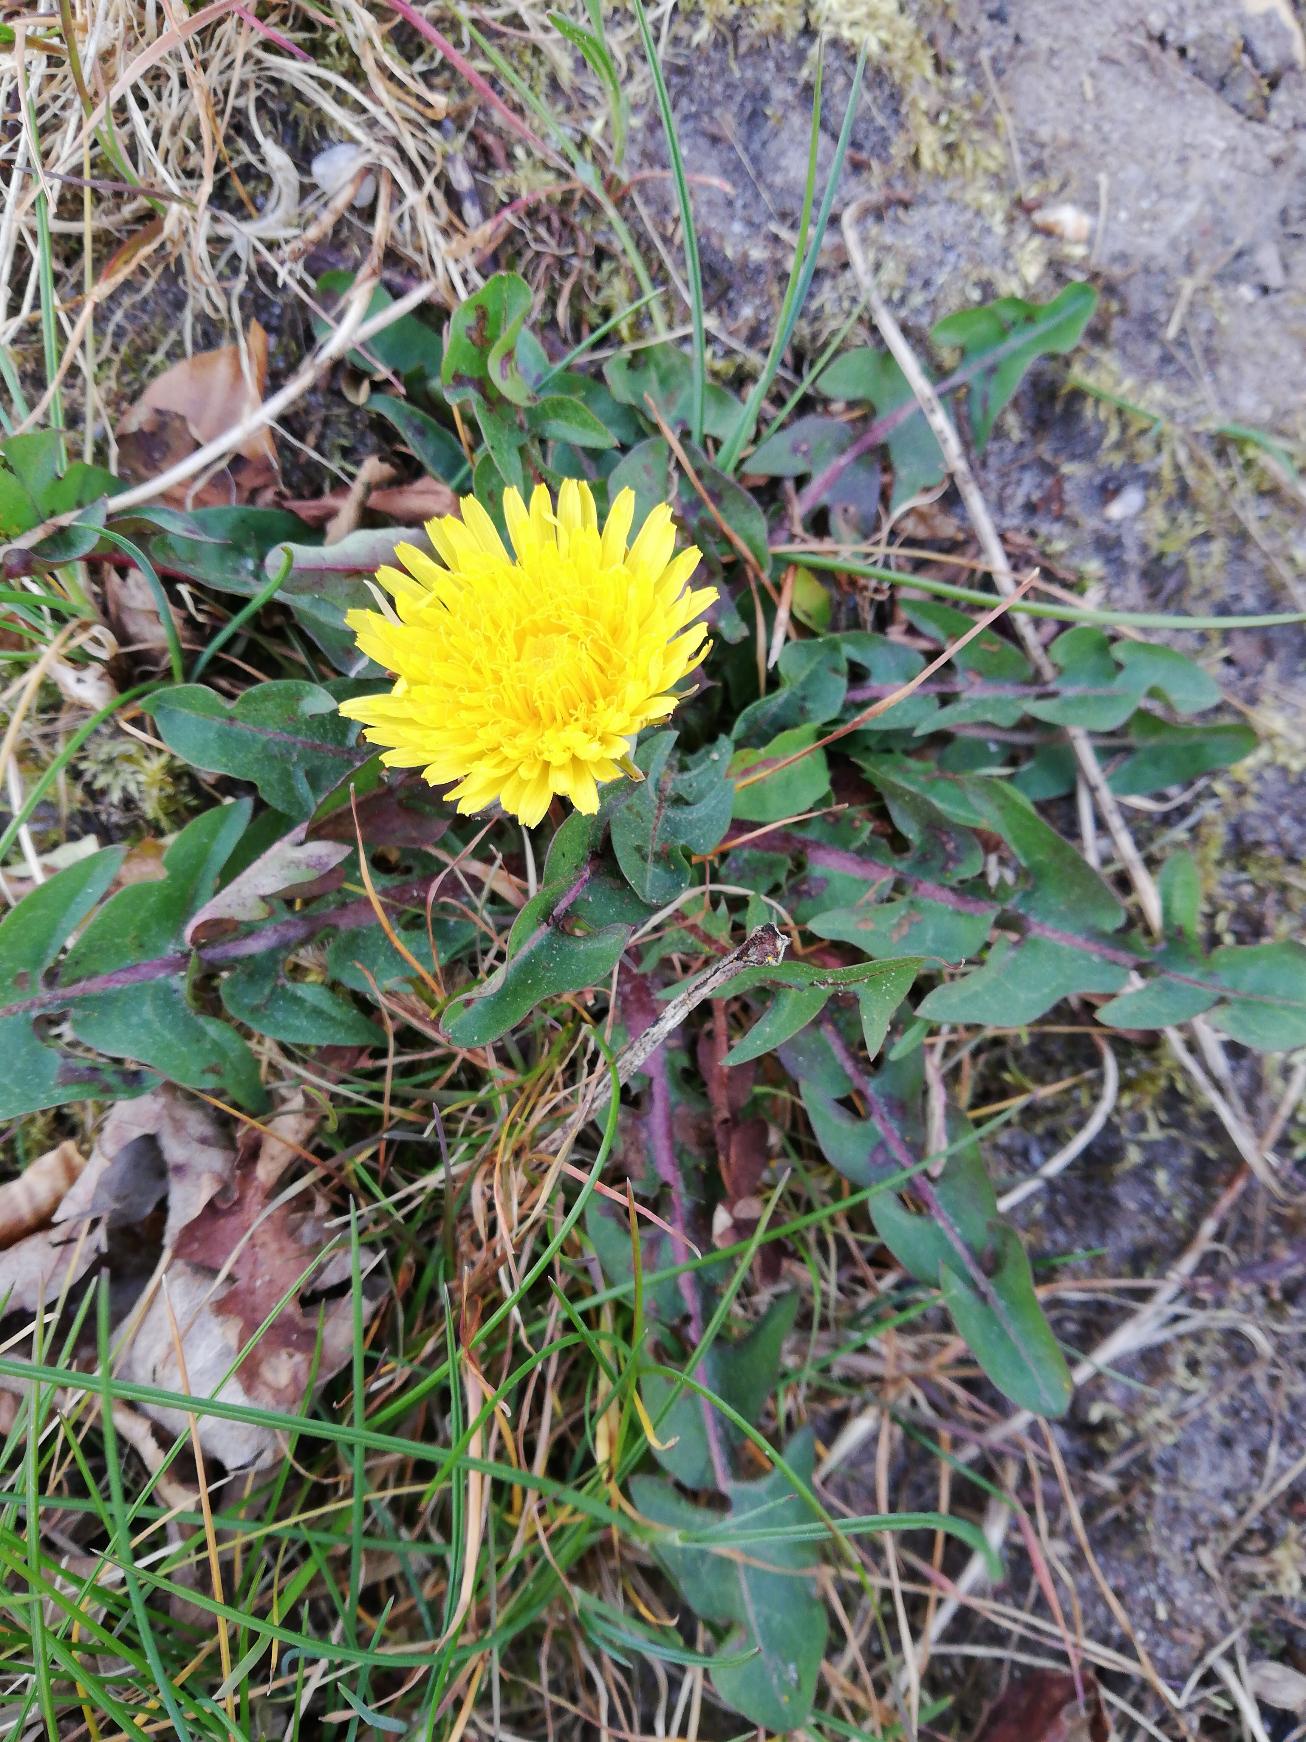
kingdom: Plantae
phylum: Tracheophyta
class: Magnoliopsida
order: Asterales
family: Asteraceae
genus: Taraxacum
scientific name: Taraxacum
